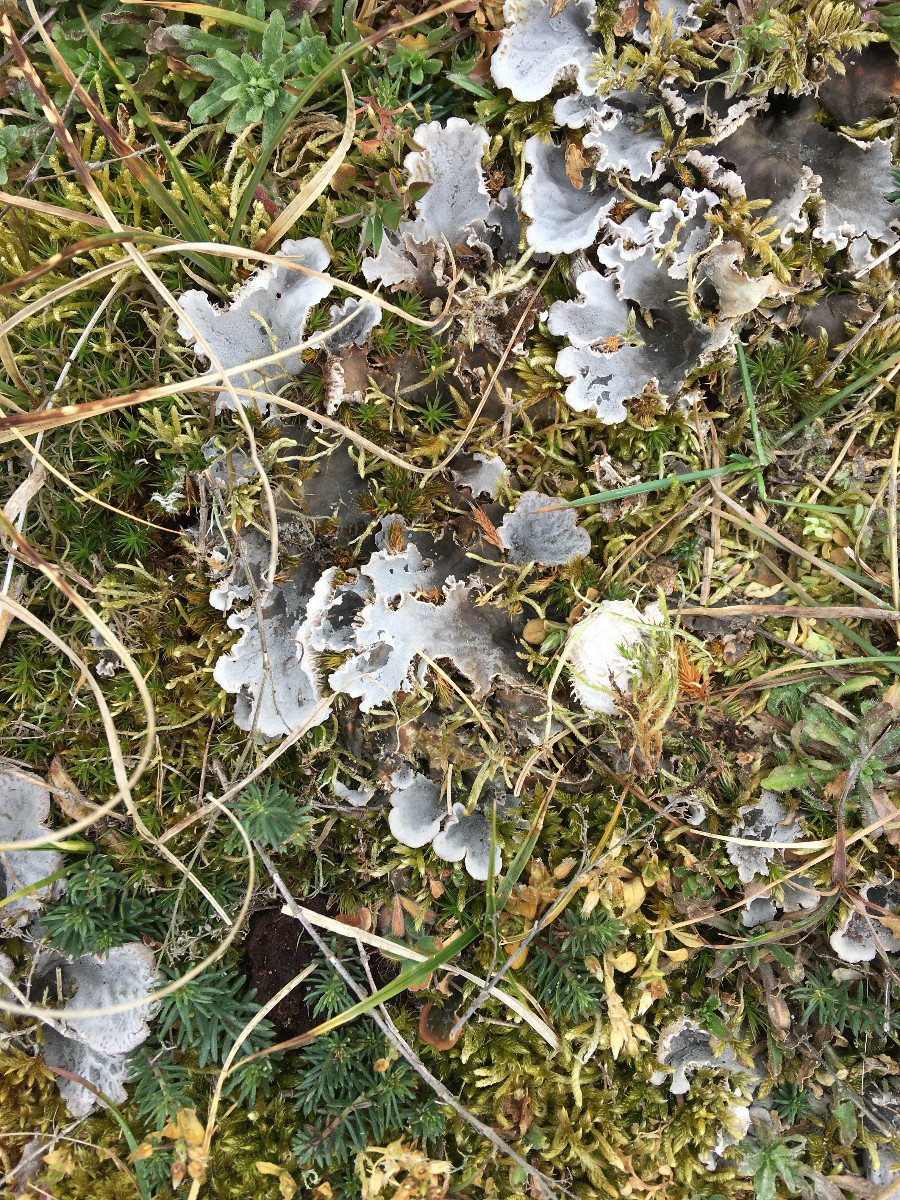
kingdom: Fungi
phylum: Ascomycota
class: Lecanoromycetes
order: Peltigerales
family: Peltigeraceae
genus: Peltigera
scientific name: Peltigera membranacea
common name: tynd skjoldlav
